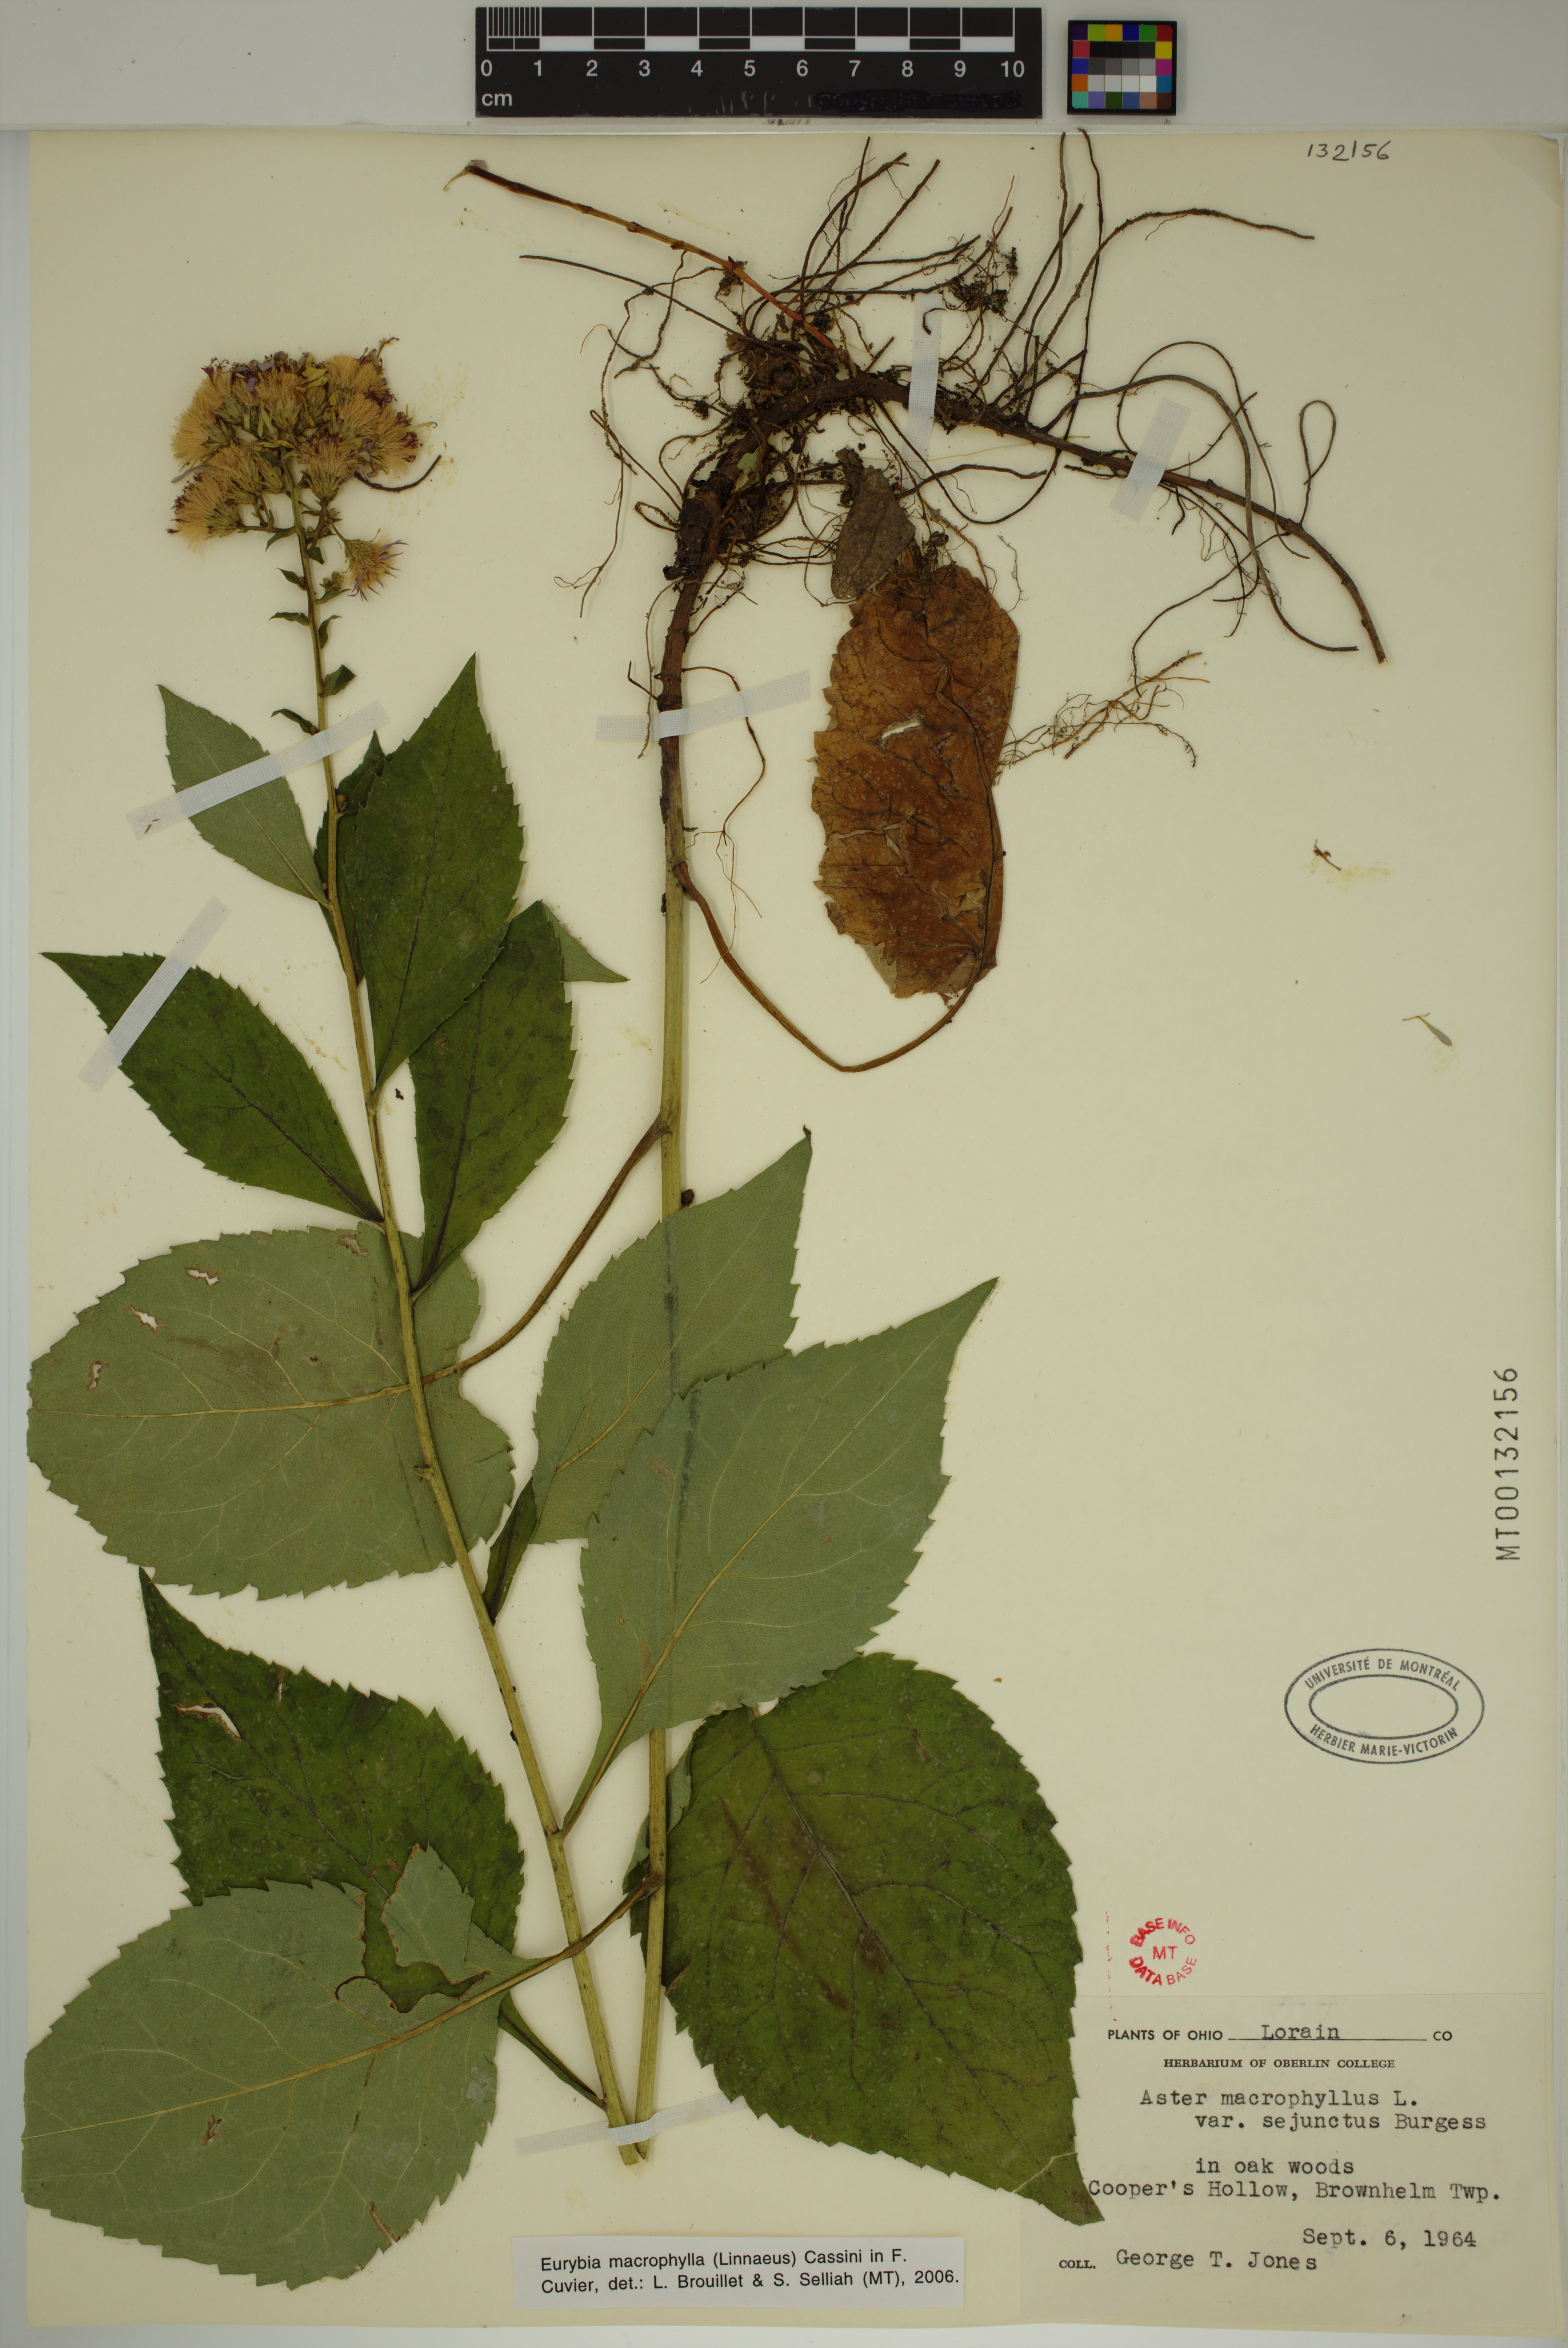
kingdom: Plantae
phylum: Tracheophyta
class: Magnoliopsida
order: Asterales
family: Asteraceae
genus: Eurybia
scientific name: Eurybia macrophylla
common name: Big-leaved aster
